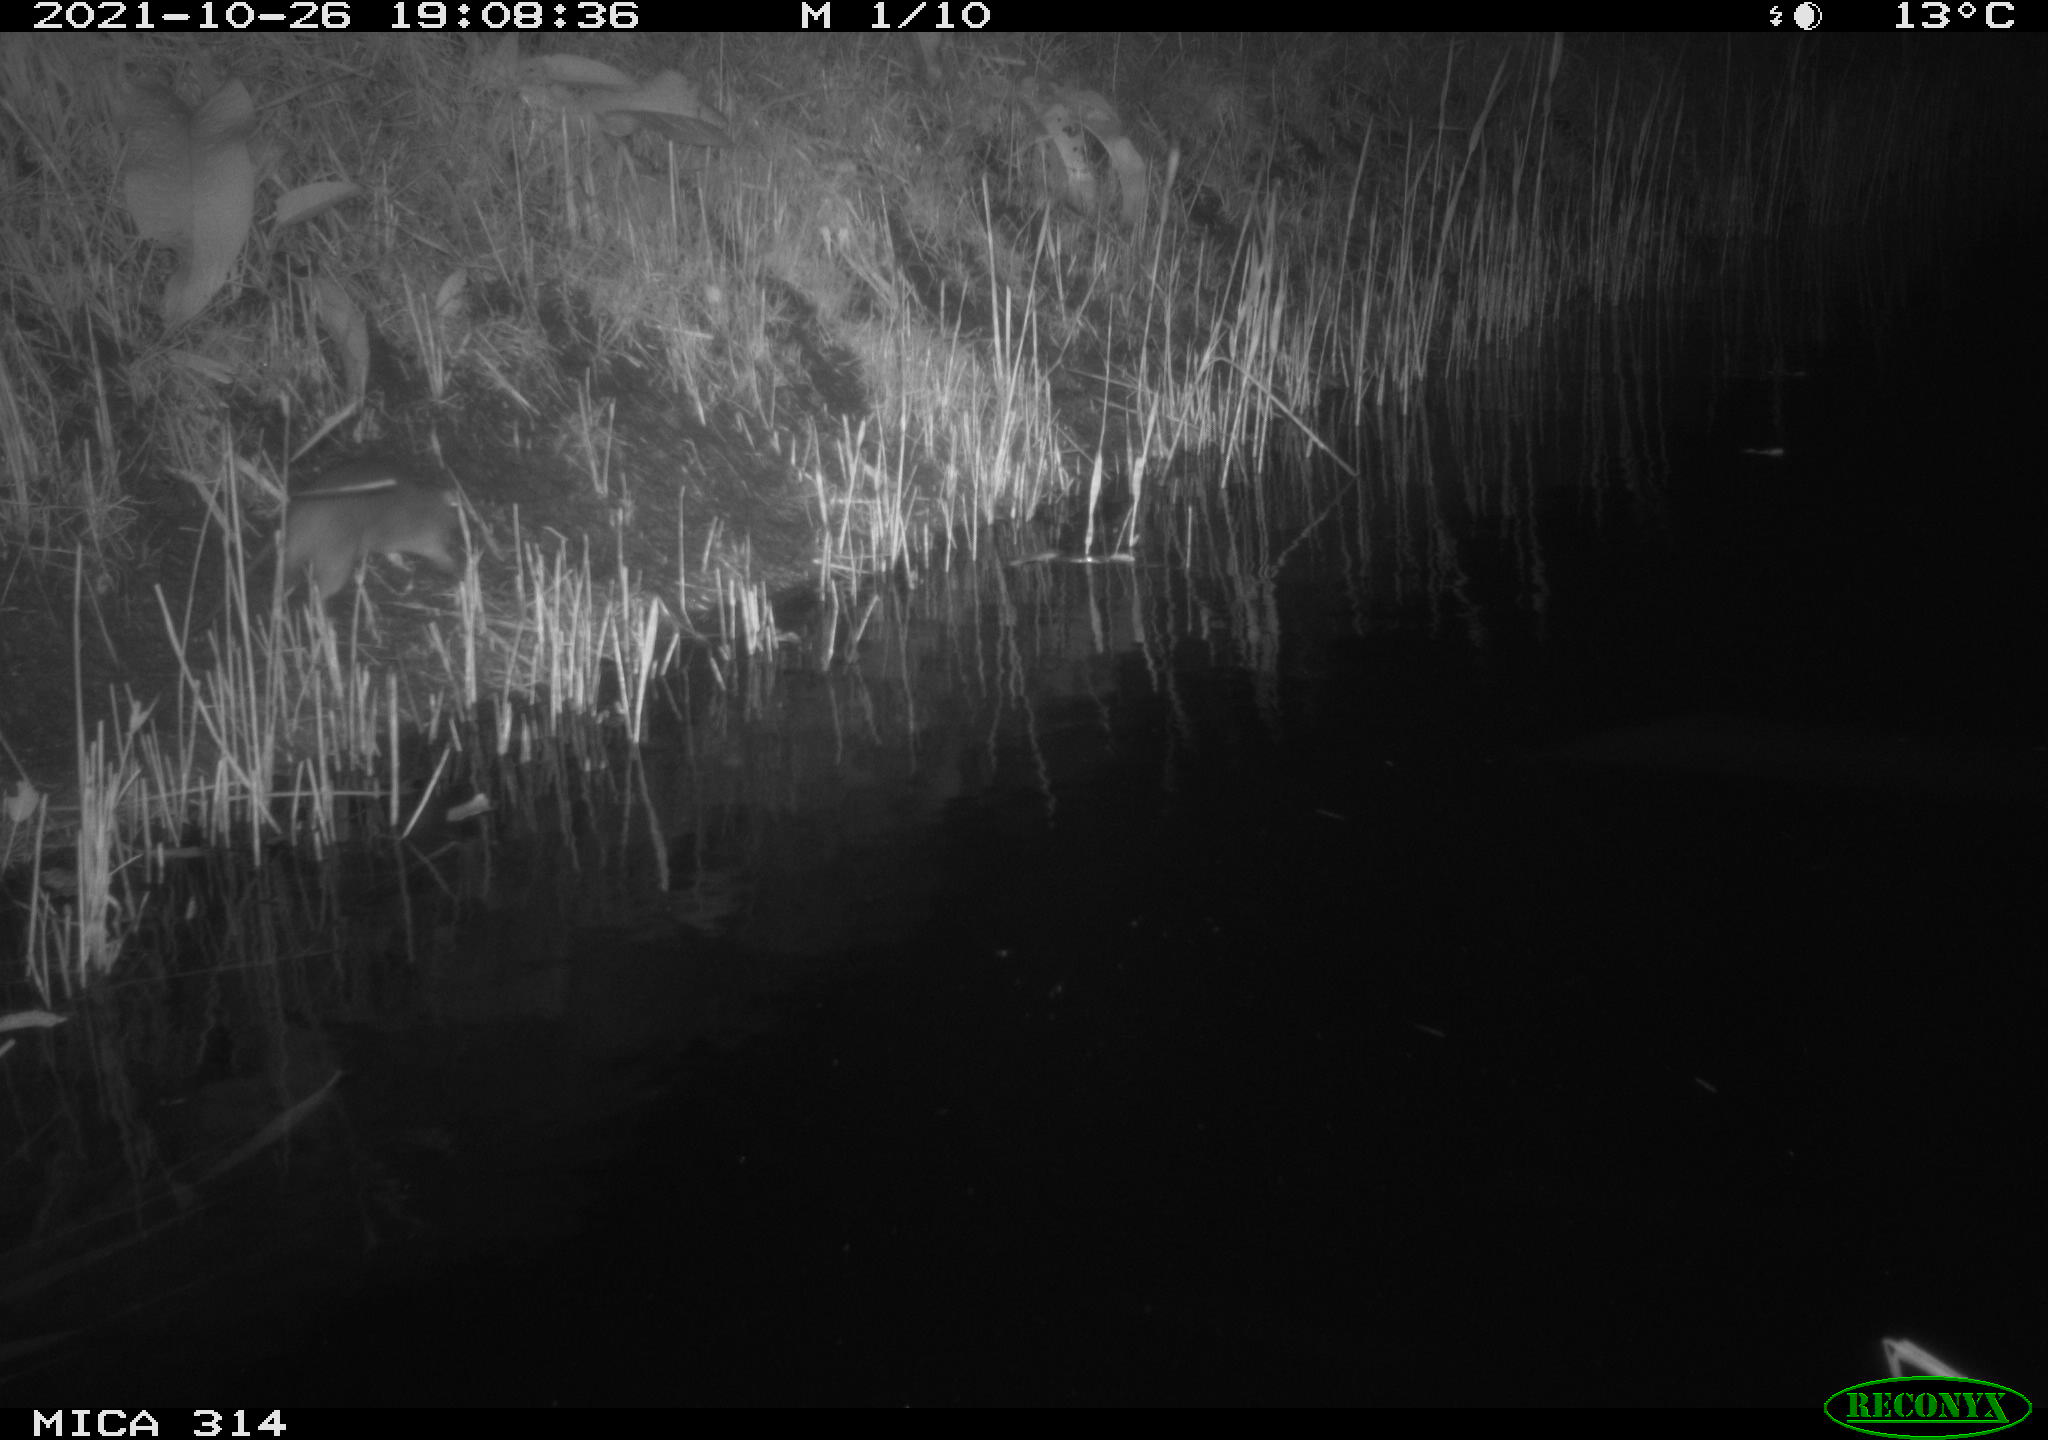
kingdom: Animalia
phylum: Chordata
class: Mammalia
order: Rodentia
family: Muridae
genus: Rattus
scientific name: Rattus norvegicus
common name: Brown rat
